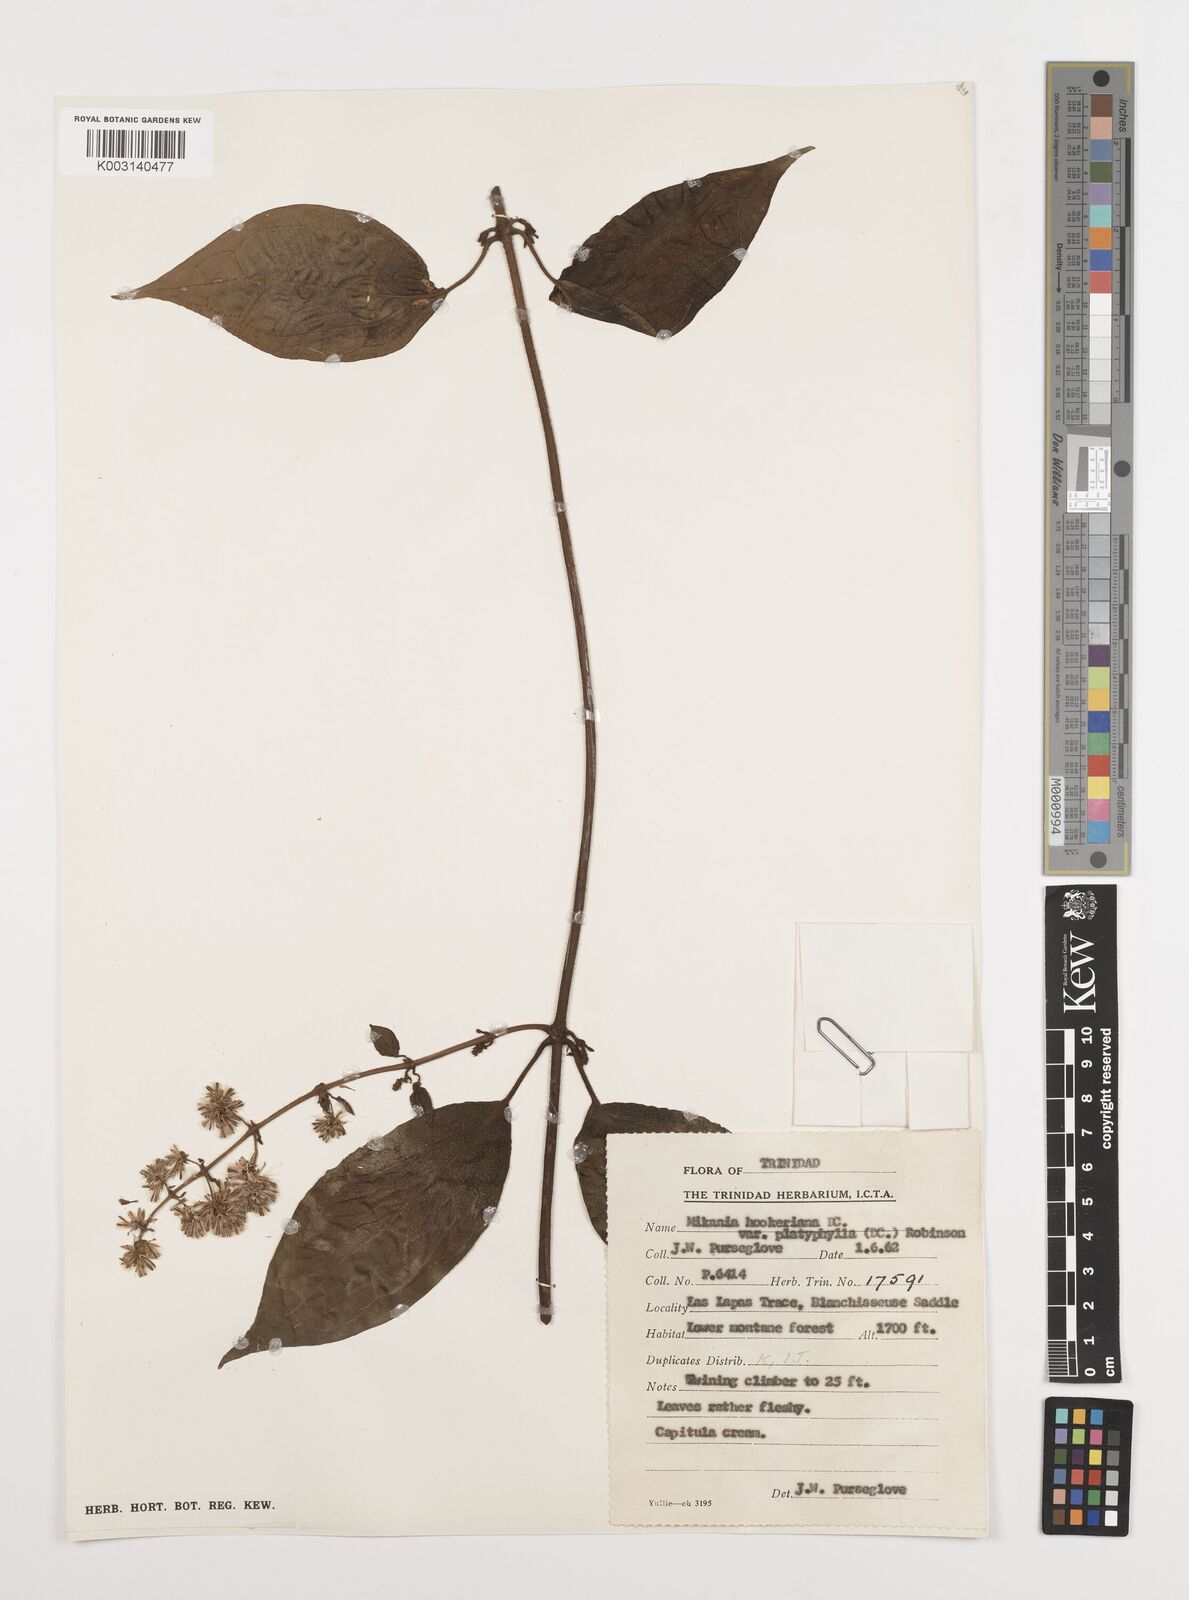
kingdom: Plantae
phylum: Tracheophyta
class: Magnoliopsida
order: Asterales
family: Asteraceae
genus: Mikania
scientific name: Mikania hookeriana
